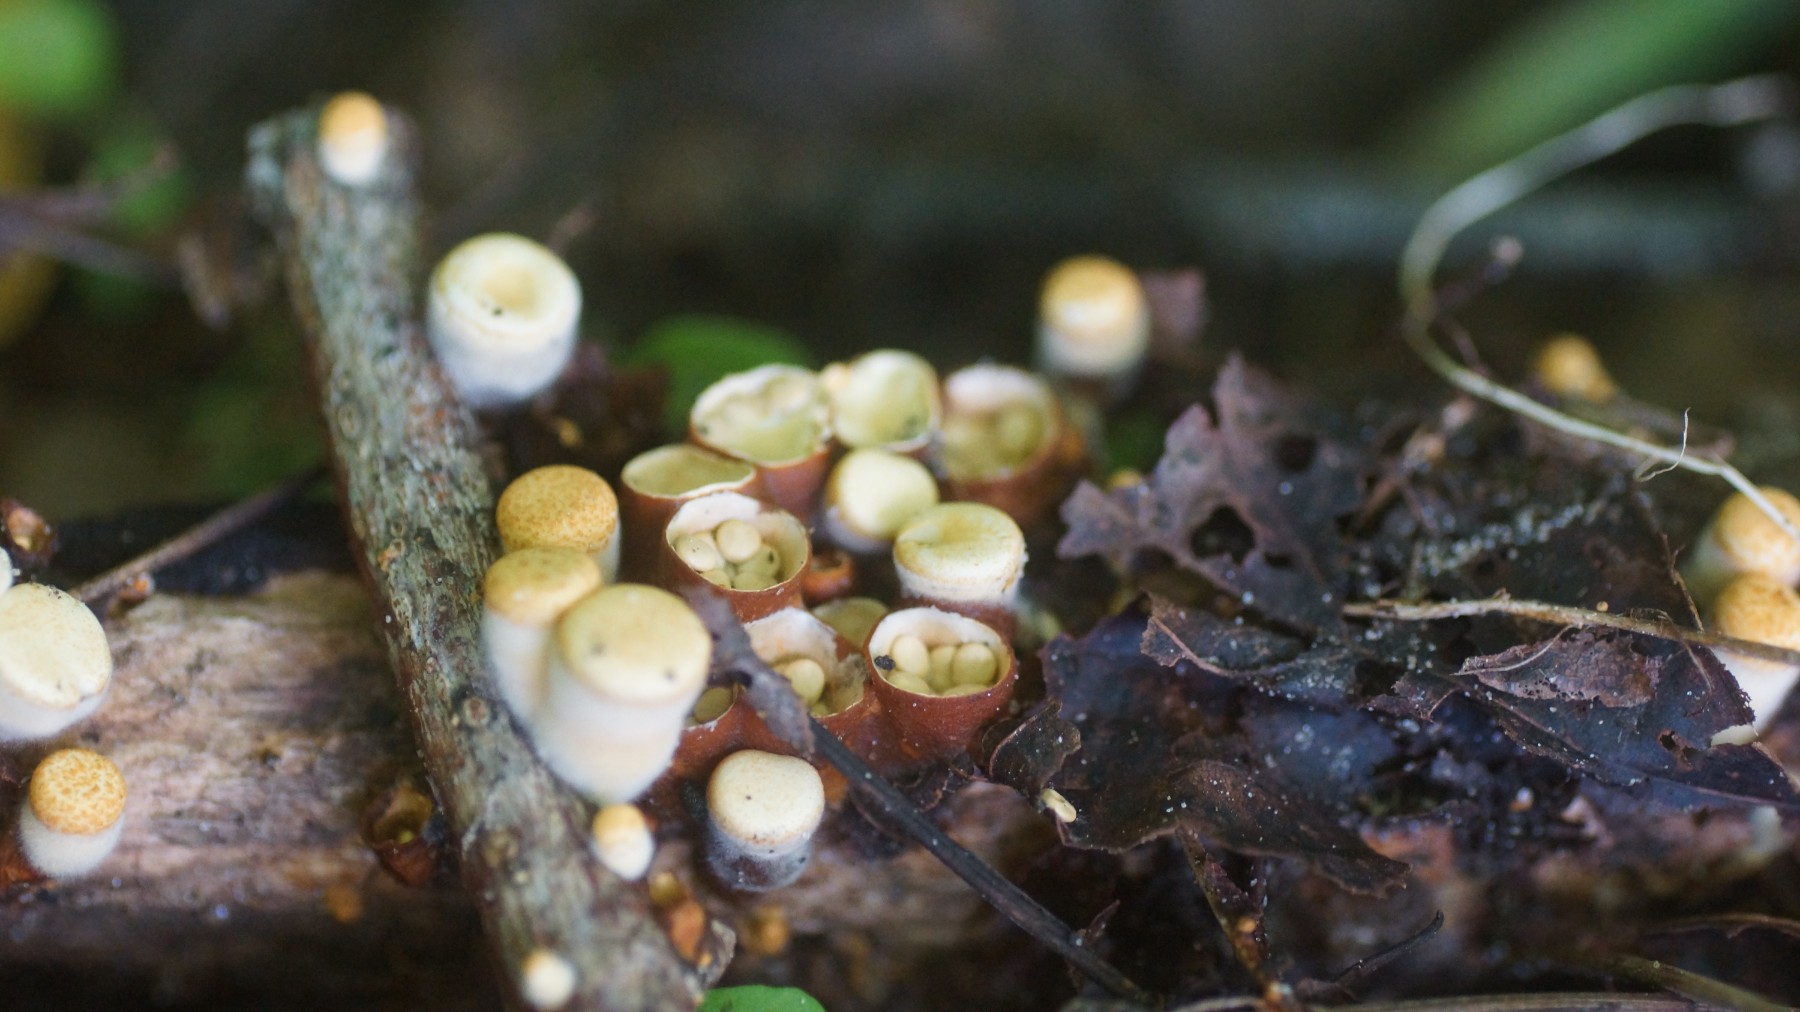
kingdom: Fungi
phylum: Basidiomycota
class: Agaricomycetes
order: Agaricales
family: Nidulariaceae
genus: Crucibulum
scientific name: Crucibulum crucibuliforme
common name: krukkesvamp
